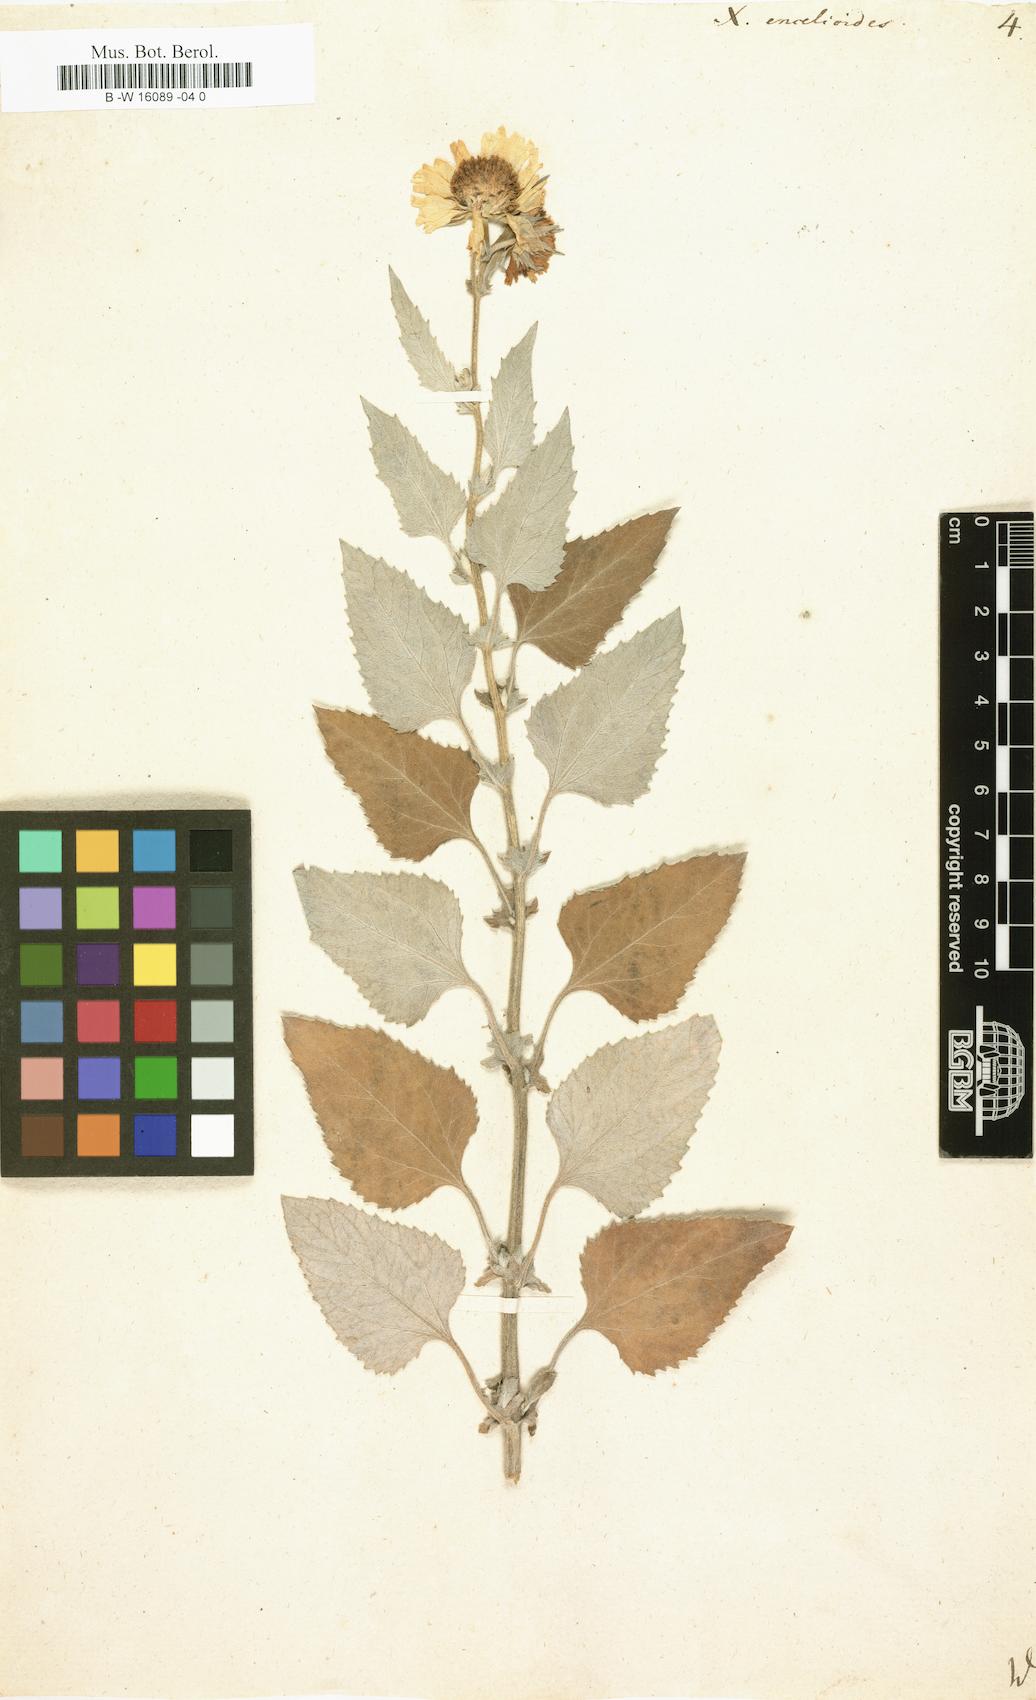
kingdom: Plantae
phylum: Tracheophyta
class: Magnoliopsida
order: Asterales
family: Asteraceae
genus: Verbesina
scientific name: Verbesina encelioides
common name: Golden crownbeard
